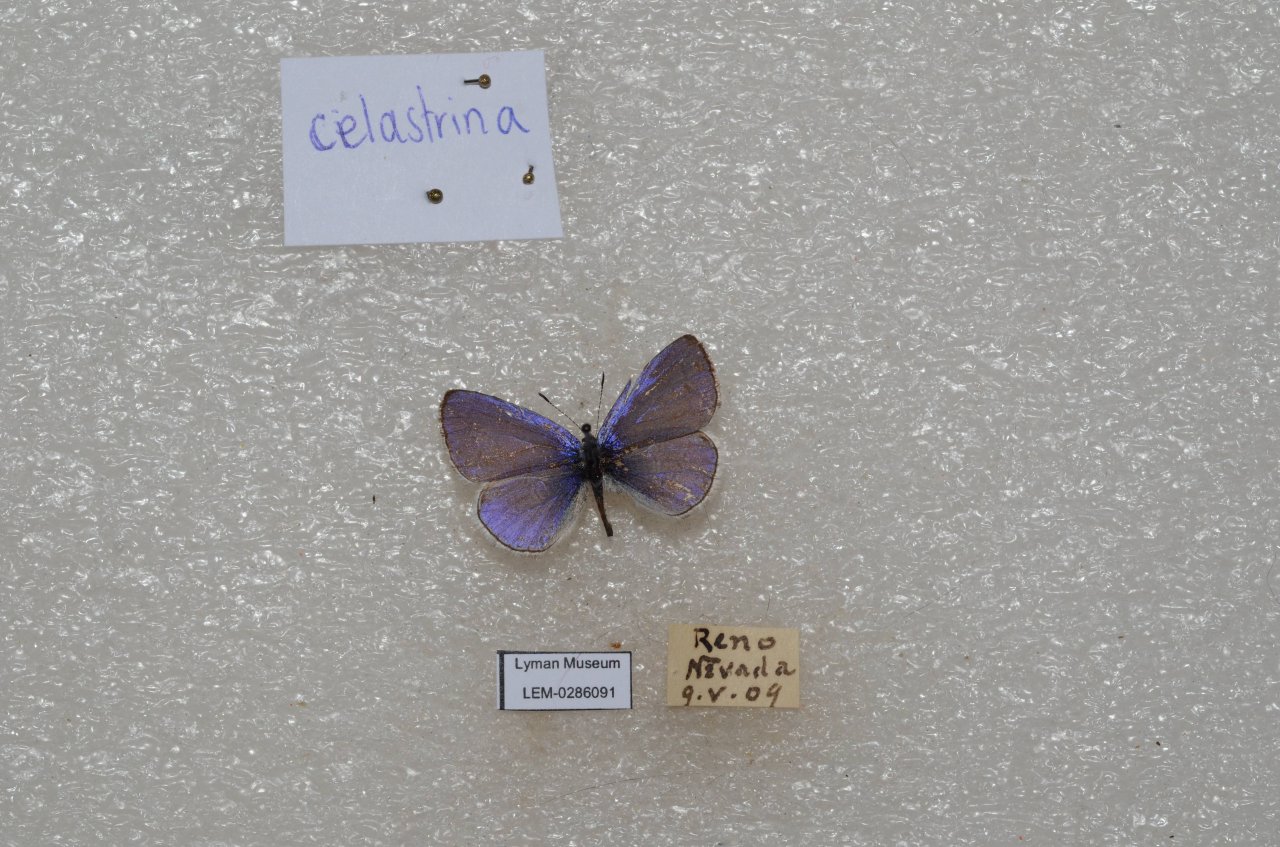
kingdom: Animalia
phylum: Arthropoda
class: Insecta
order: Lepidoptera
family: Lycaenidae
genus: Celastrina
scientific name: Celastrina
